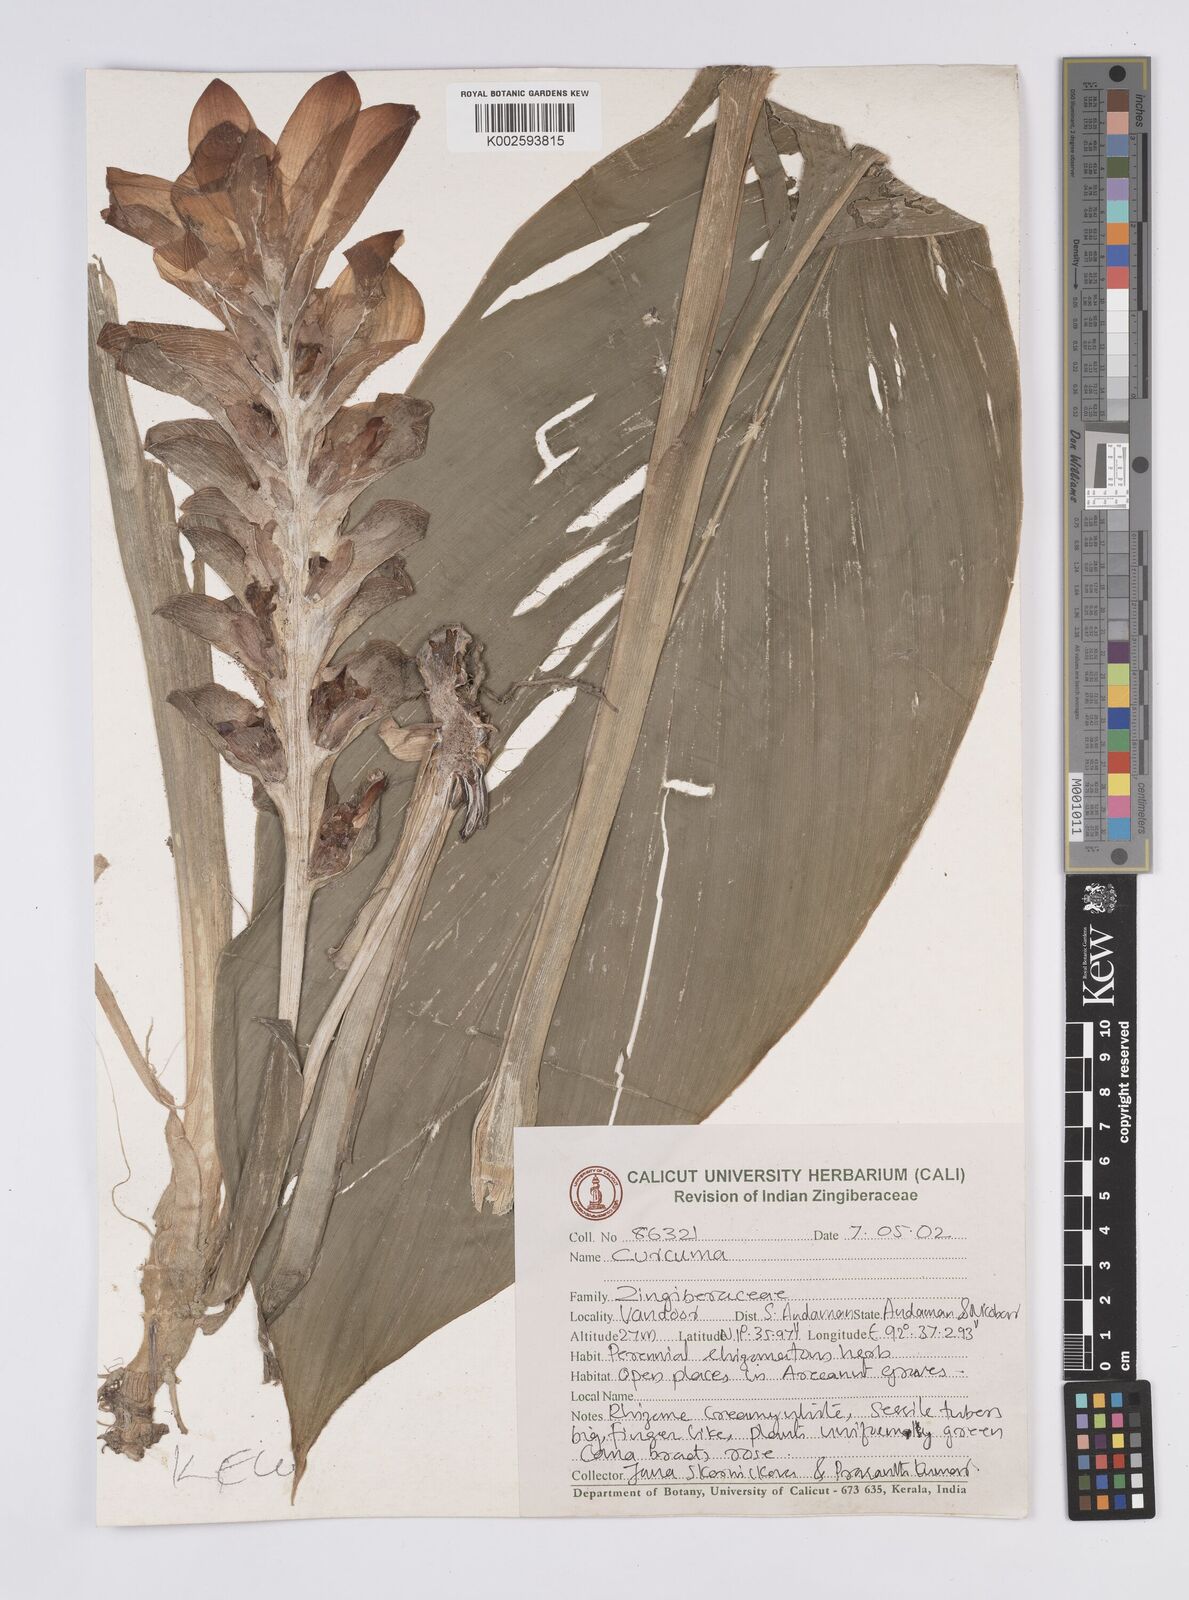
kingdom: Plantae
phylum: Tracheophyta
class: Liliopsida
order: Zingiberales
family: Zingiberaceae
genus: Curcuma
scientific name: Curcuma
